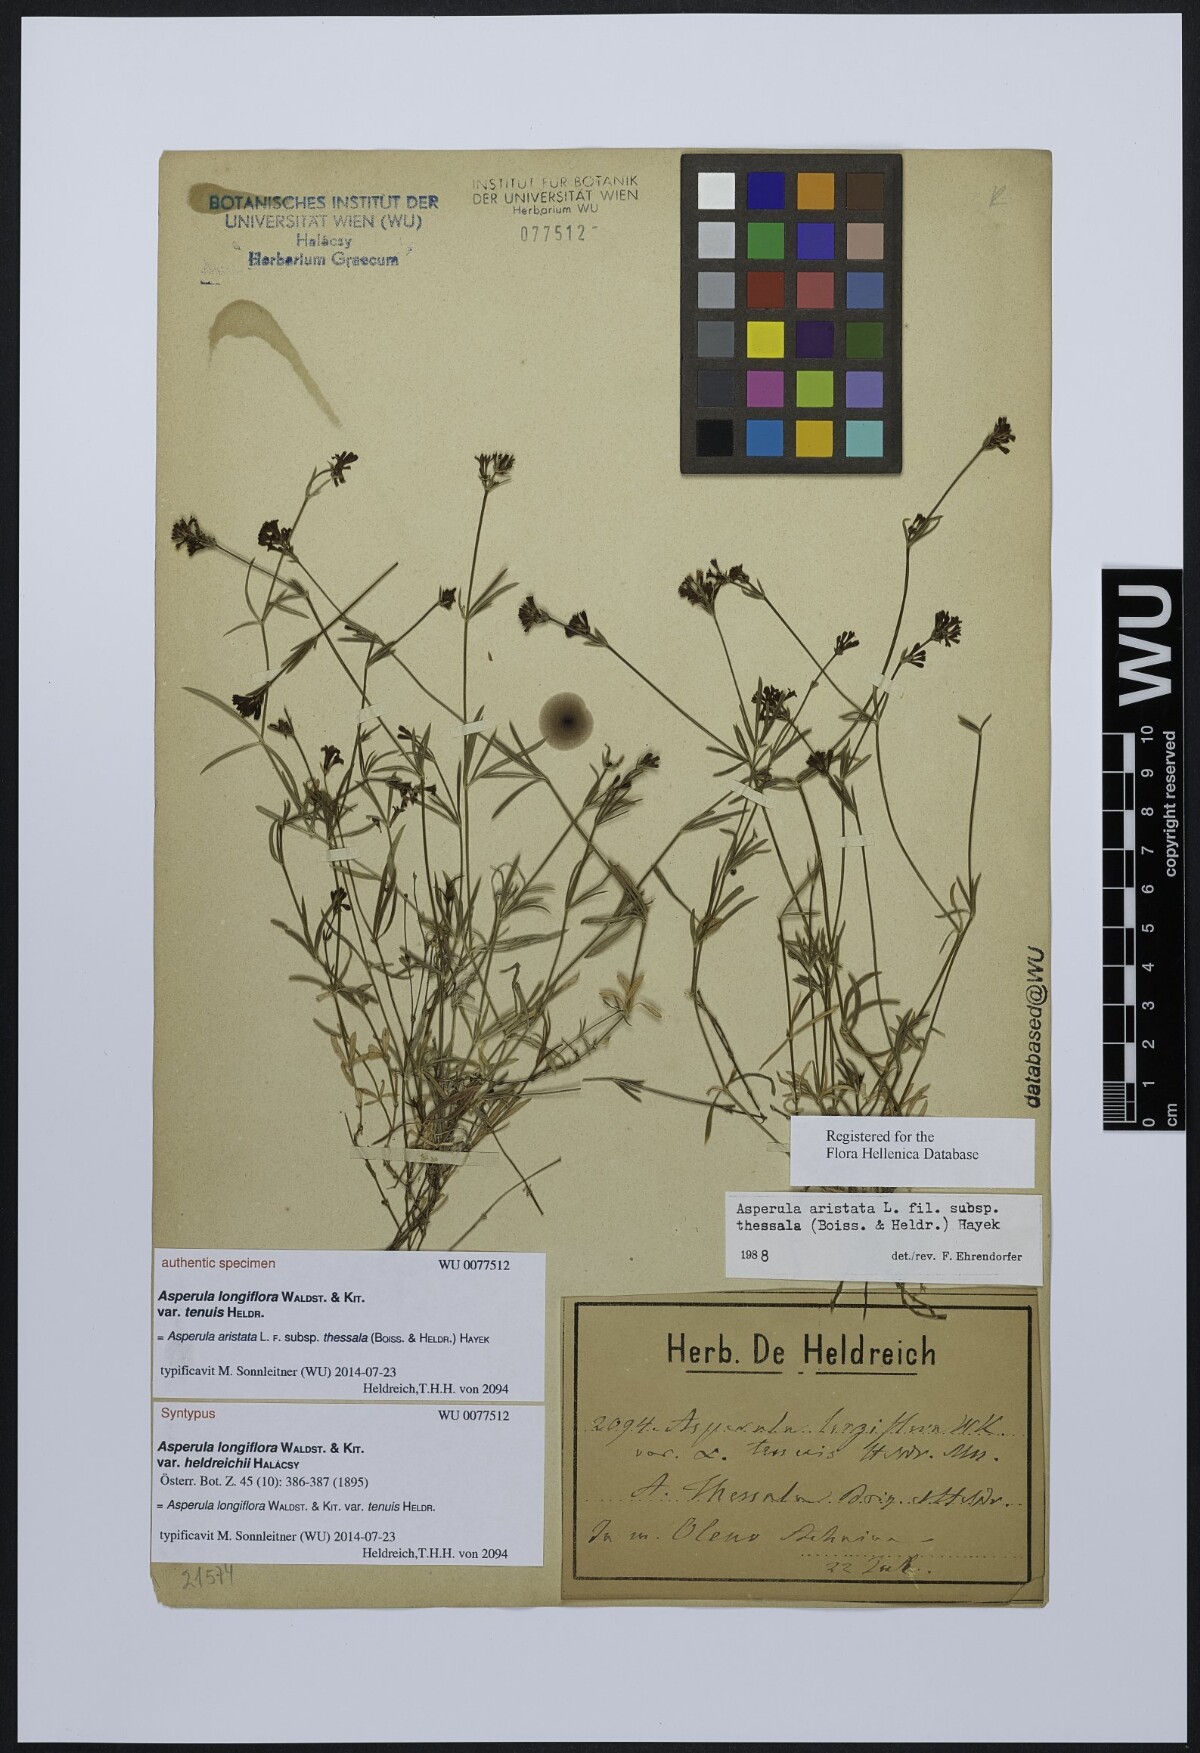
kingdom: Plantae
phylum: Tracheophyta
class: Magnoliopsida
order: Gentianales
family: Rubiaceae
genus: Asperula
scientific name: Asperula longiflora
